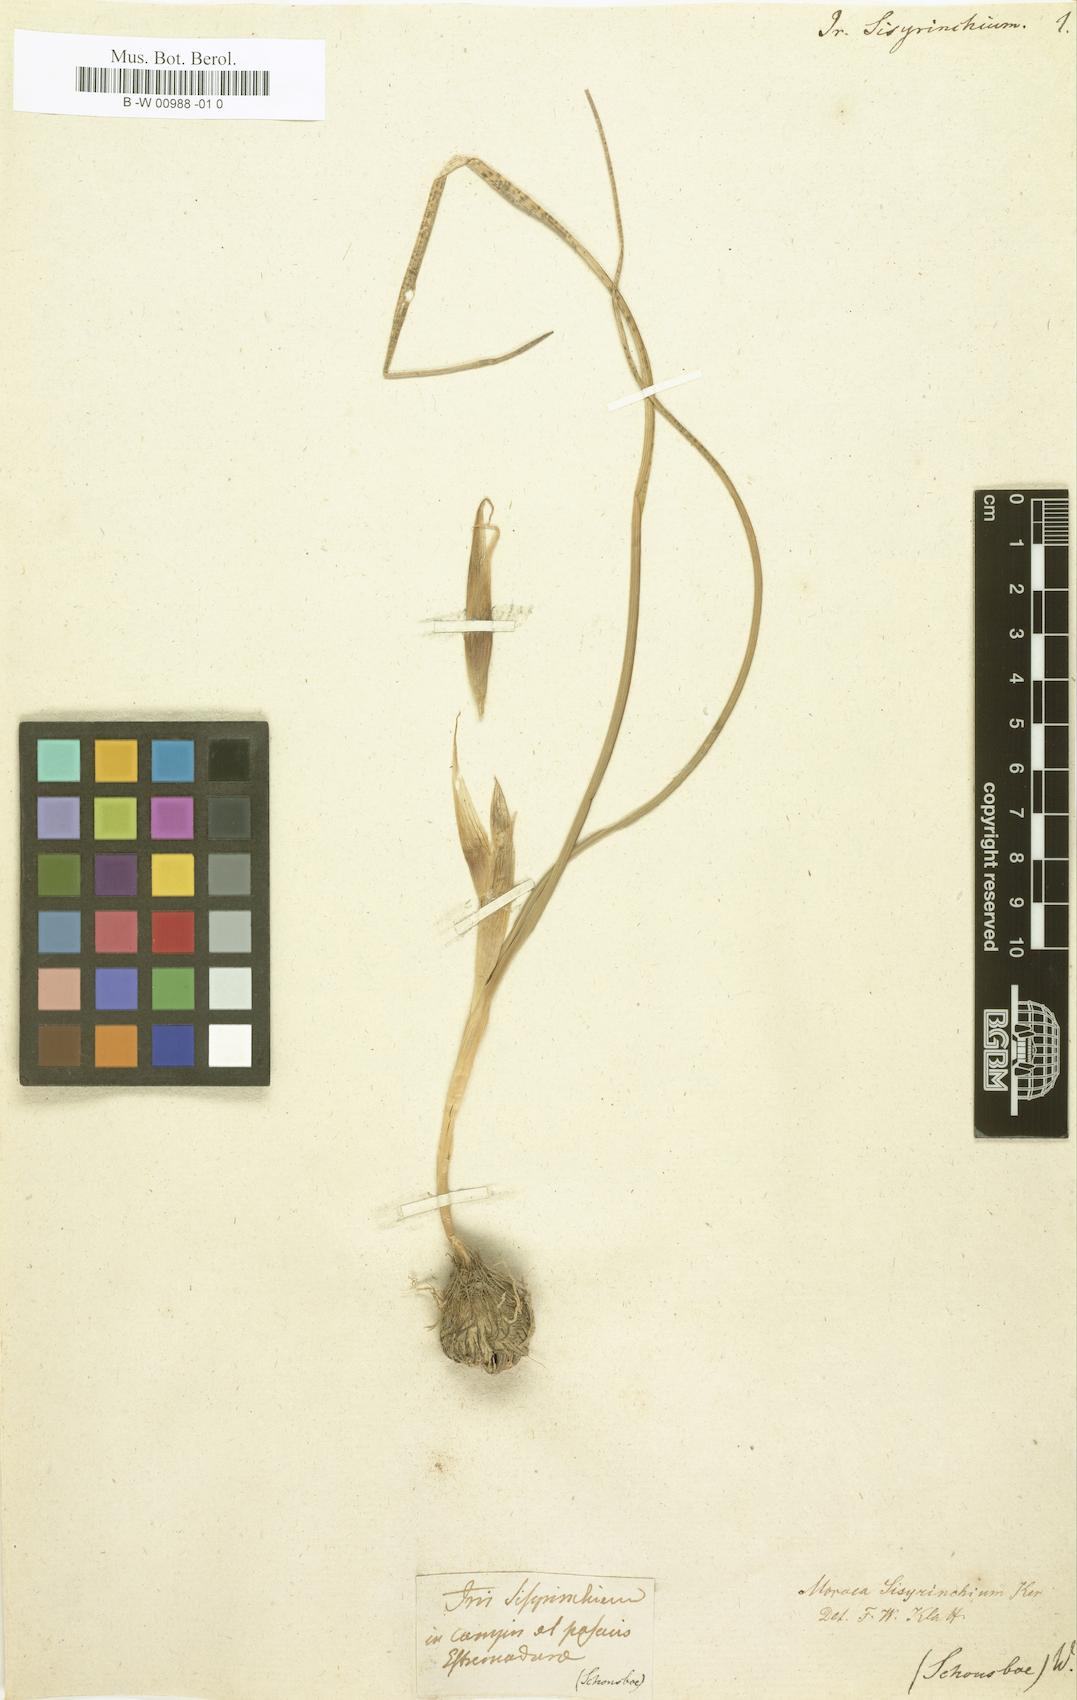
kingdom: Plantae
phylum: Tracheophyta
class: Liliopsida
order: Asparagales
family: Iridaceae
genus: Moraea
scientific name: Moraea sisyrinchium
